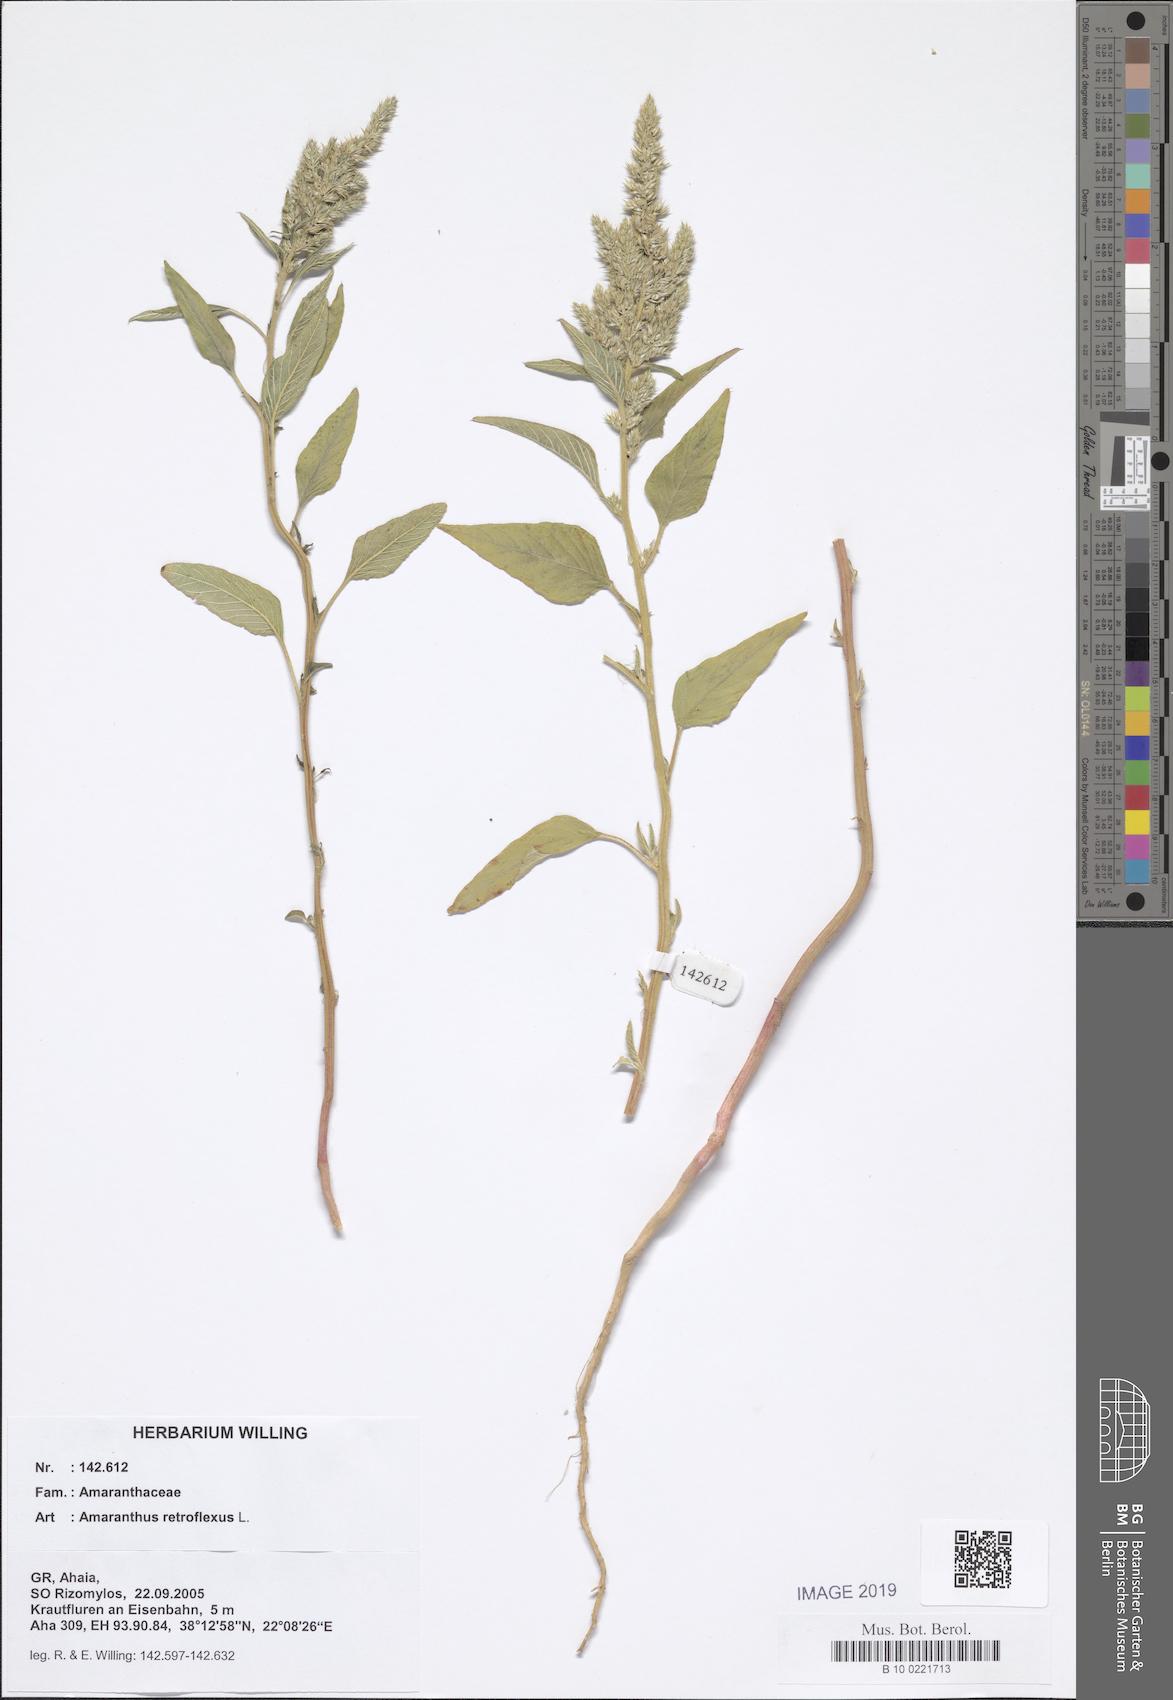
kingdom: Plantae
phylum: Tracheophyta
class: Magnoliopsida
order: Caryophyllales
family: Amaranthaceae
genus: Amaranthus
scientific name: Amaranthus retroflexus
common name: Redroot amaranth
